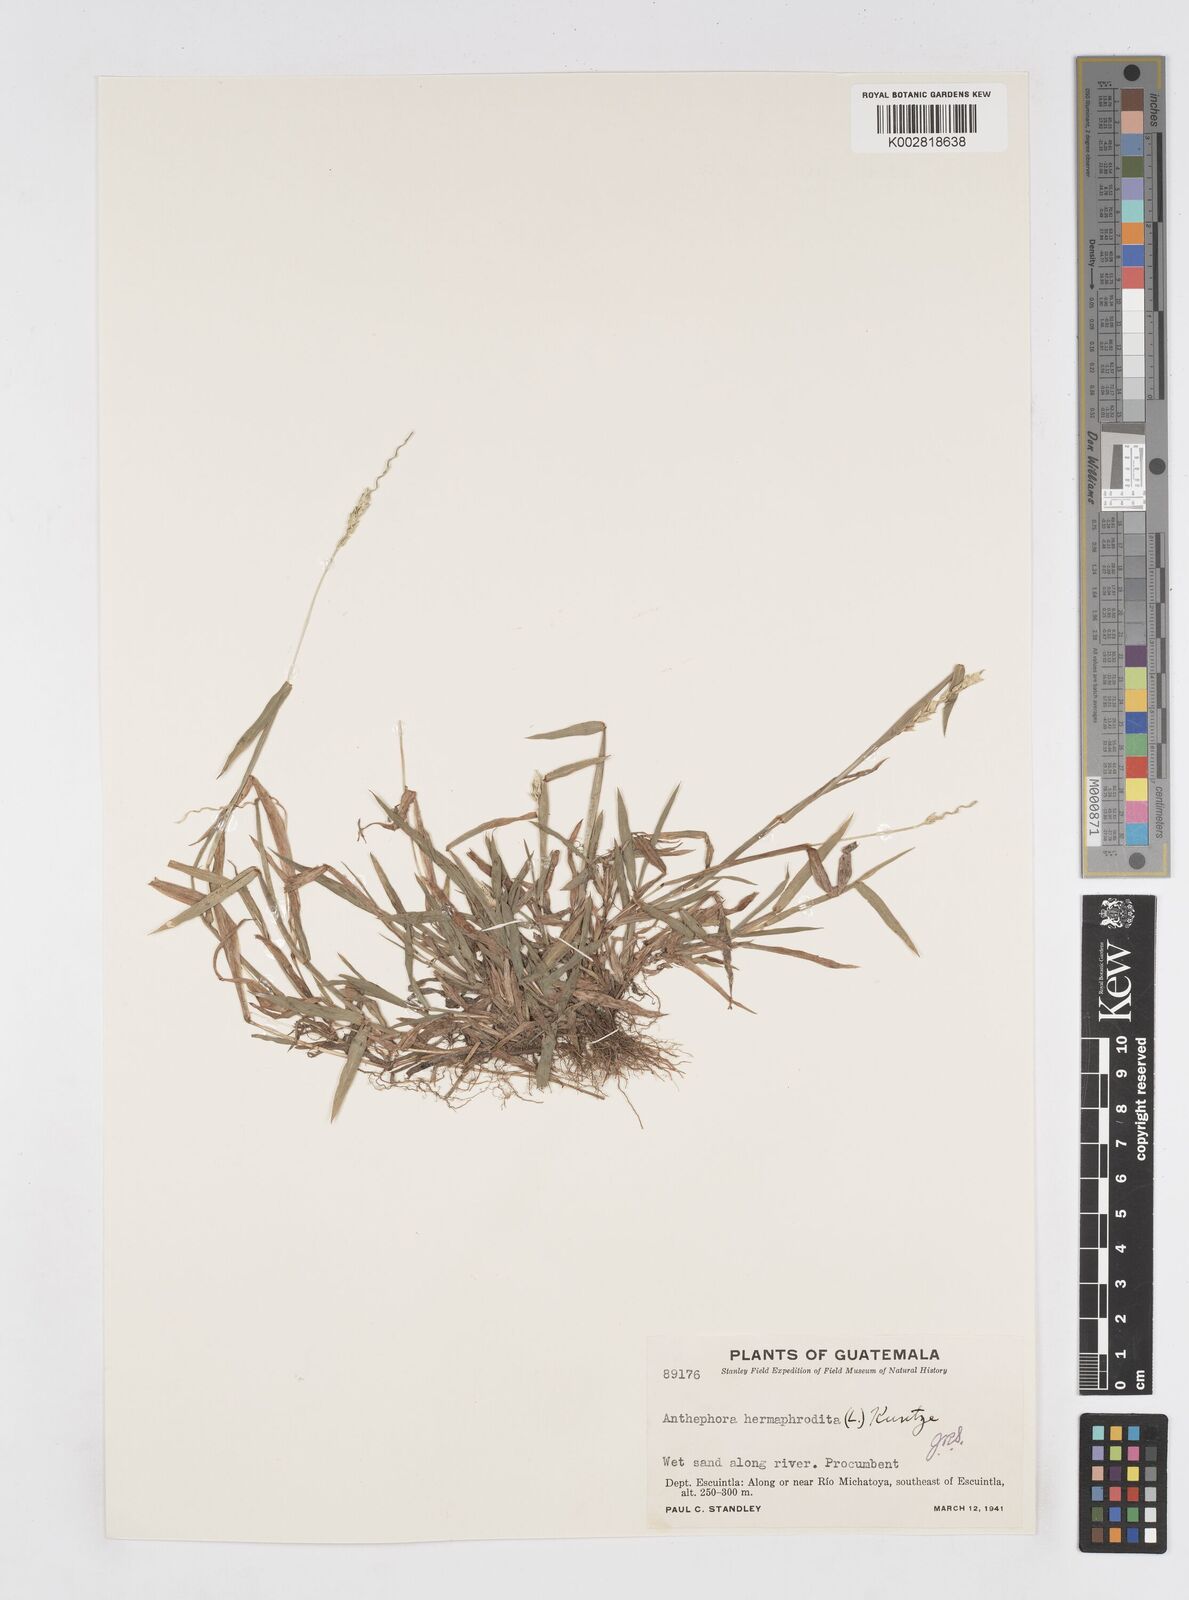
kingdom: Plantae
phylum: Tracheophyta
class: Liliopsida
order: Poales
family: Poaceae
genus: Anthephora
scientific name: Anthephora hermaphrodita
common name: Oldfield grass
